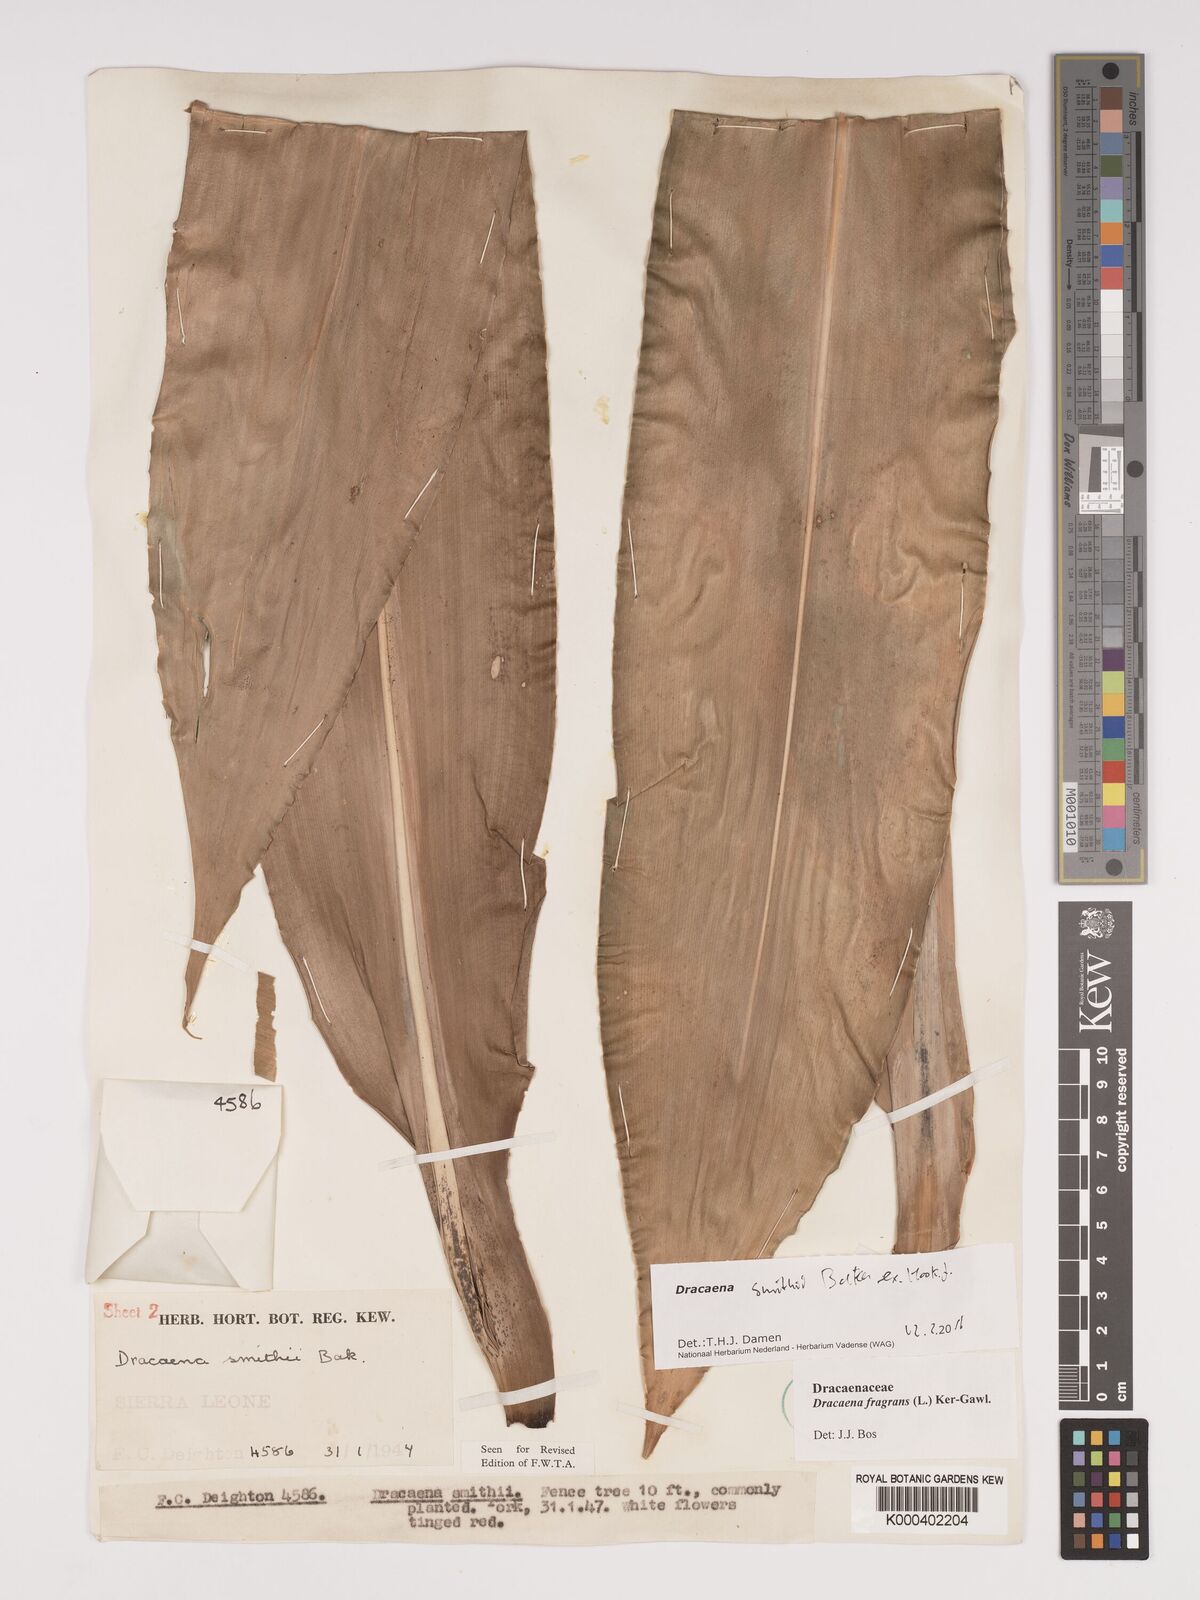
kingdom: Plantae
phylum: Tracheophyta
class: Liliopsida
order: Asparagales
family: Asparagaceae
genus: Dracaena
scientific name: Dracaena fragrans
